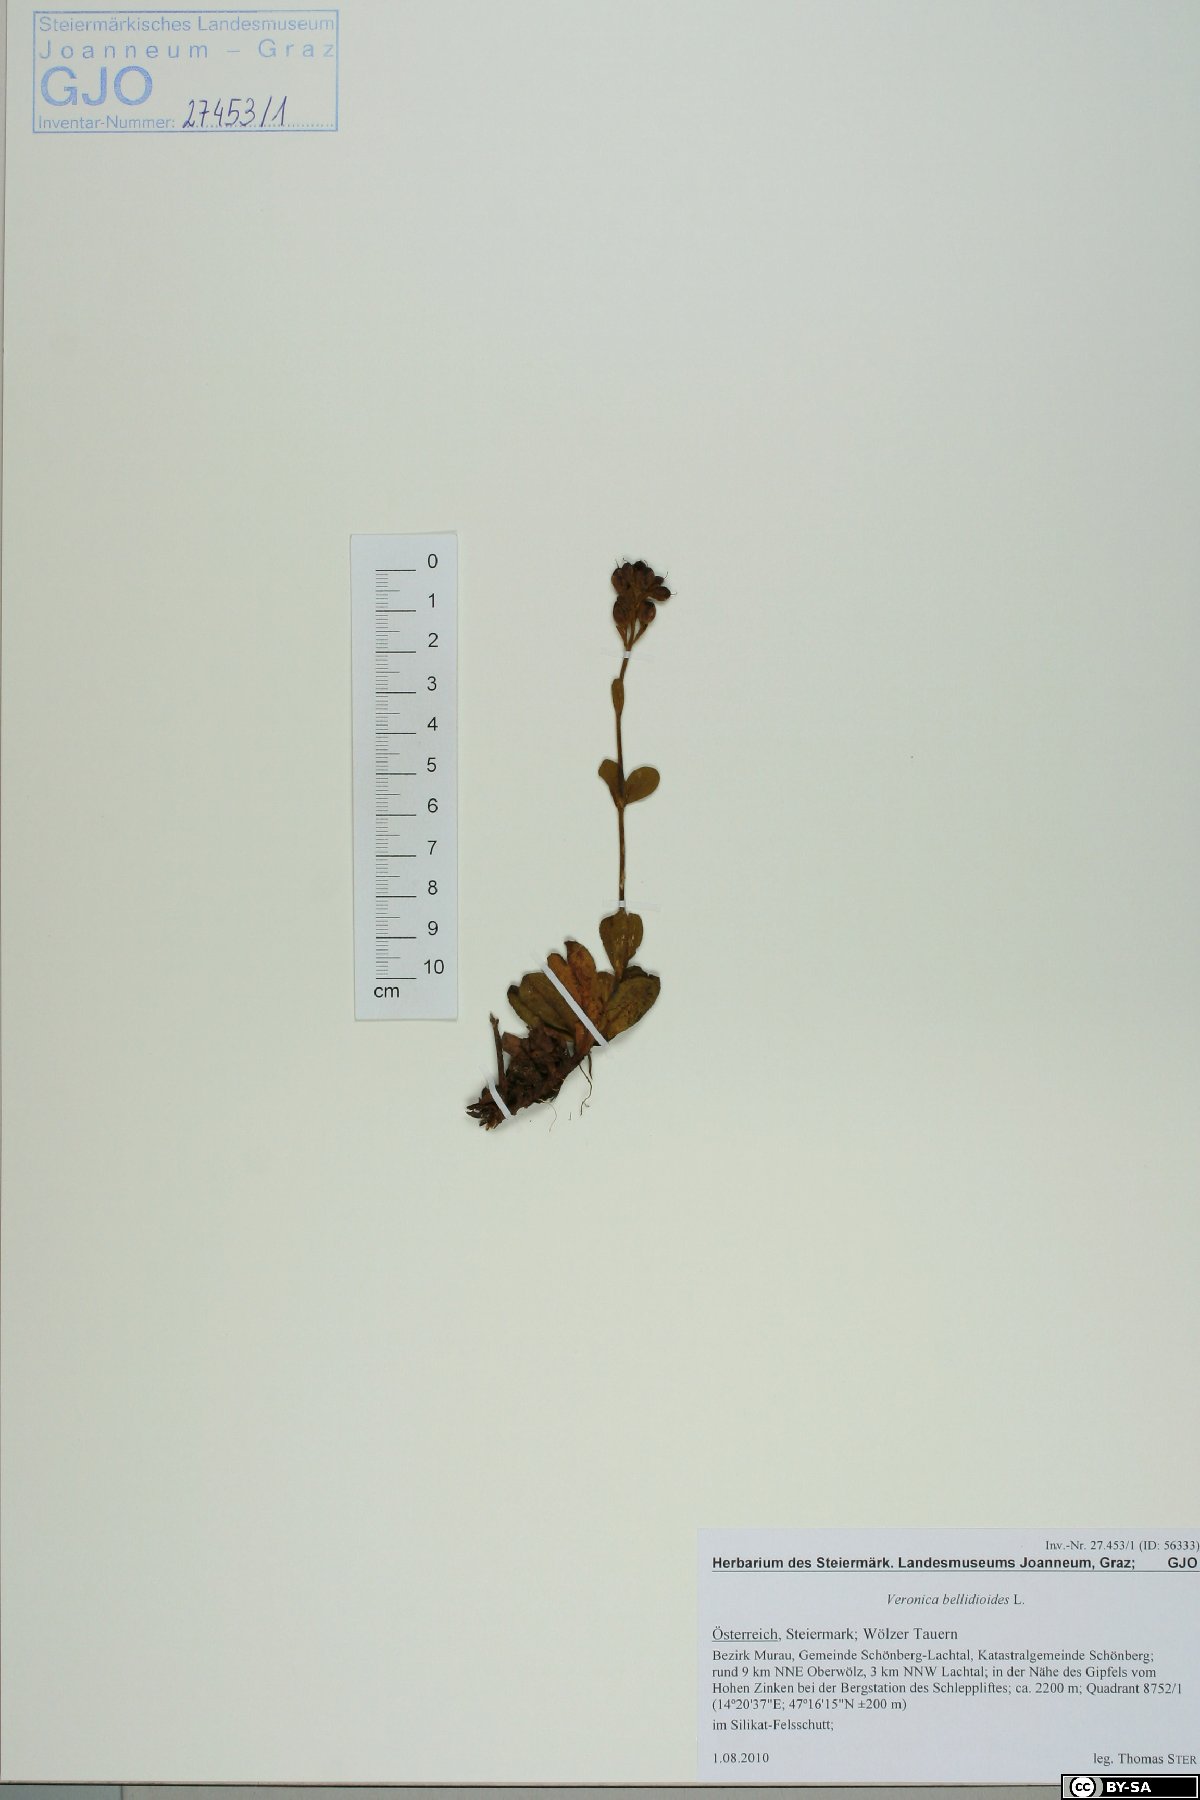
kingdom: Plantae
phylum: Tracheophyta
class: Magnoliopsida
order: Lamiales
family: Plantaginaceae
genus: Veronica
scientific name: Veronica bellidioides
